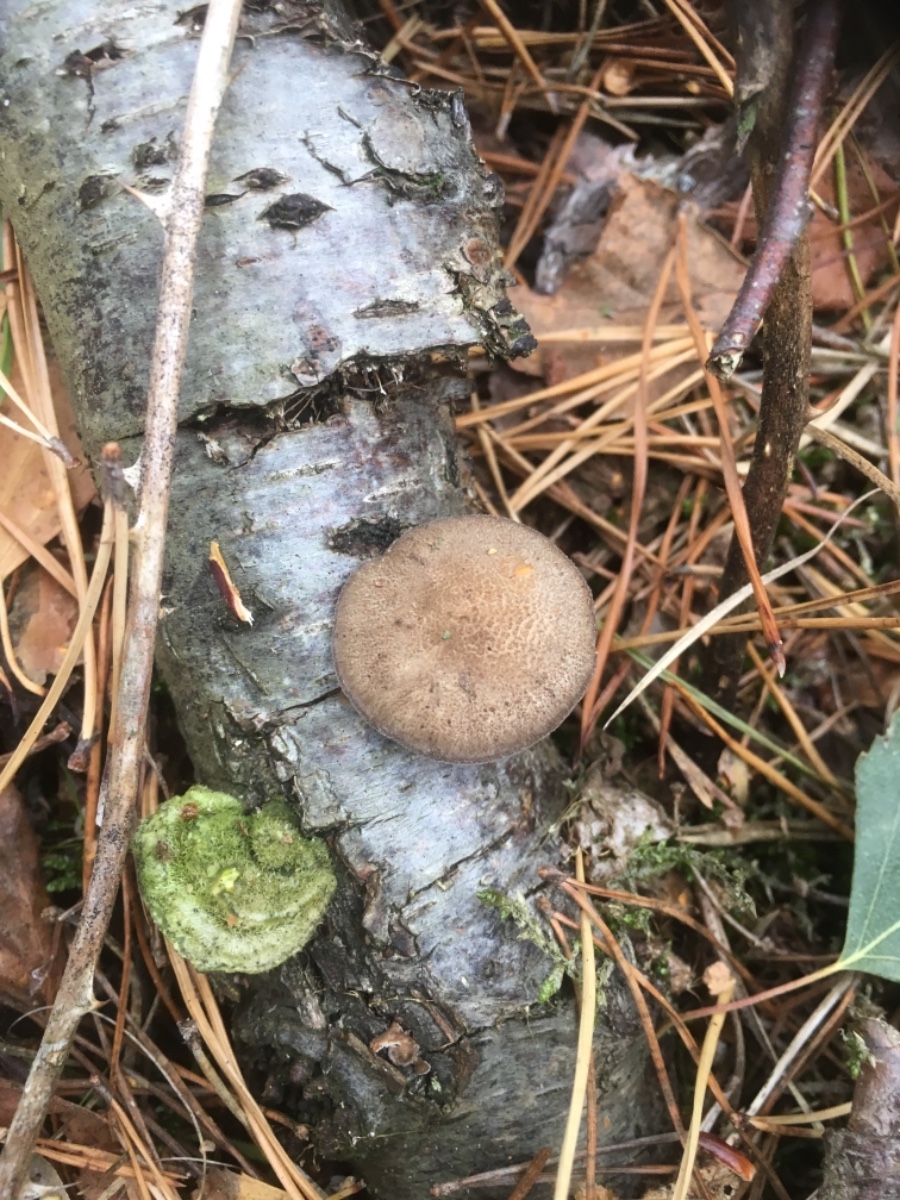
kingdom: Fungi
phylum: Basidiomycota
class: Agaricomycetes
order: Polyporales
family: Polyporaceae
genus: Lentinus
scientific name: Lentinus brumalis
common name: vinter-stilkporesvamp
